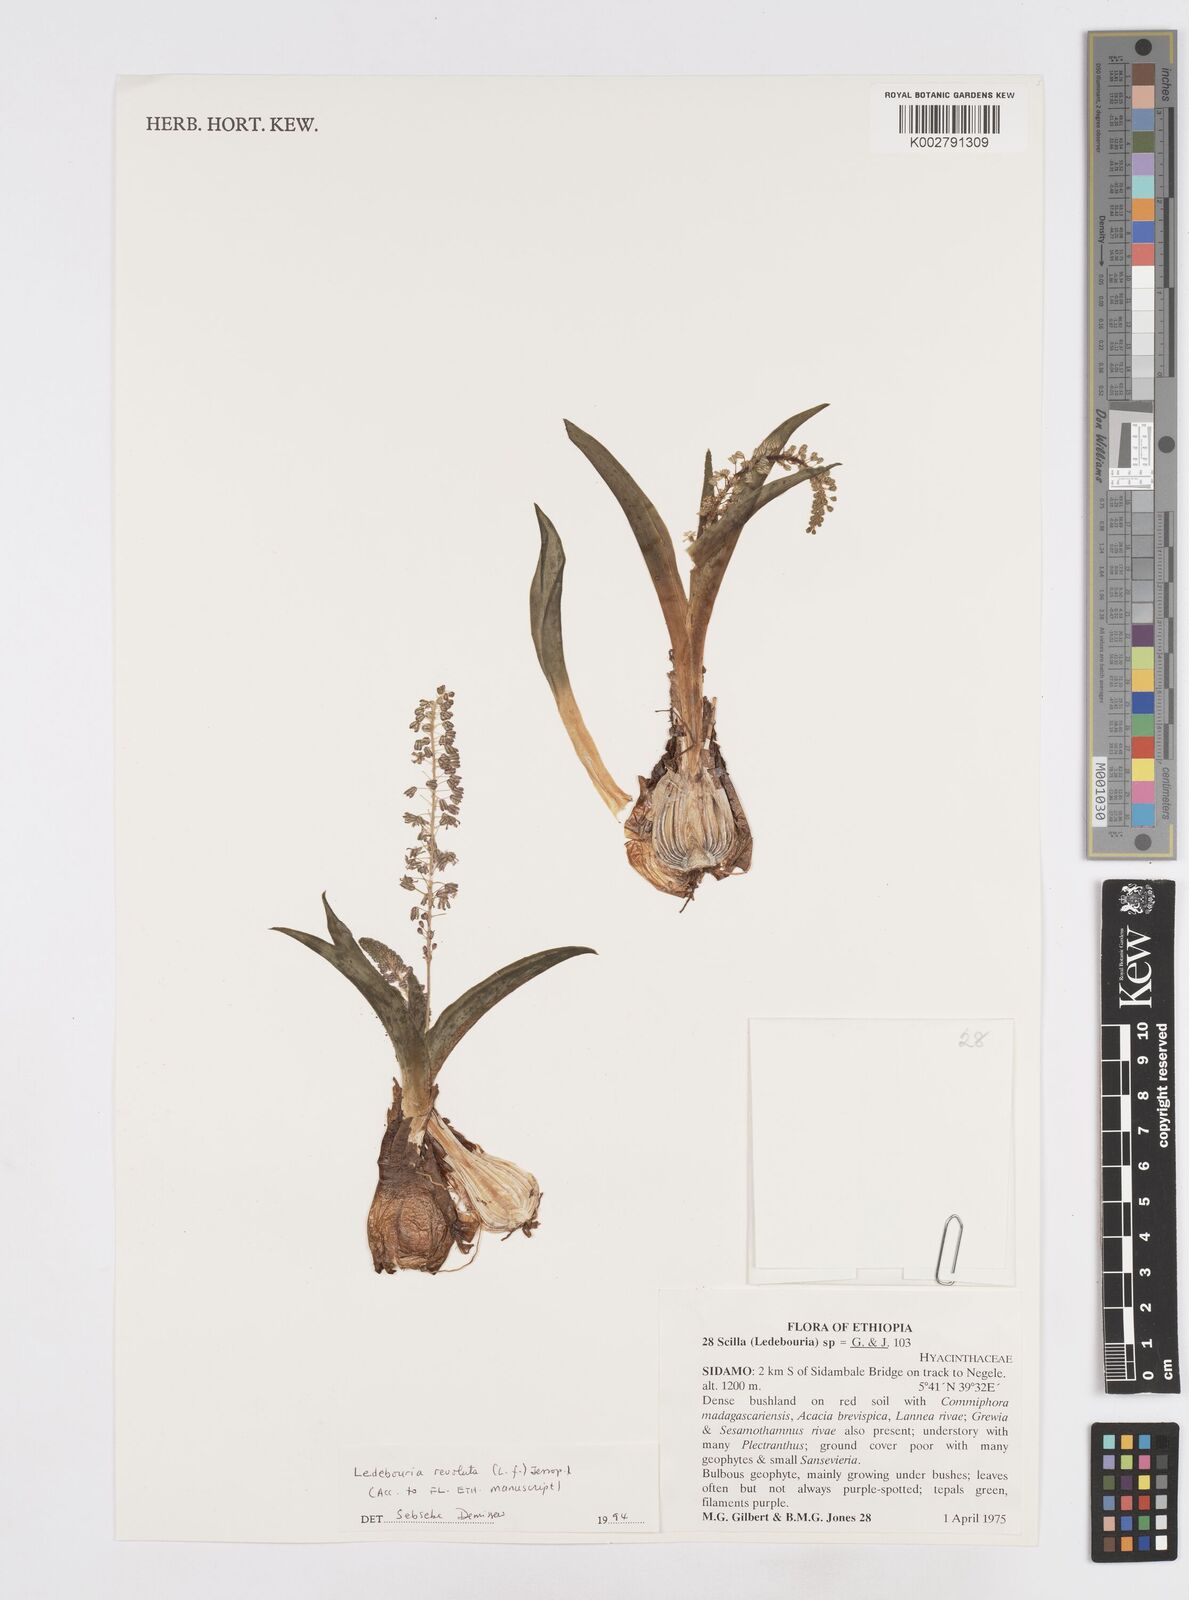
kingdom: Plantae
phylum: Tracheophyta
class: Liliopsida
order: Asparagales
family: Asparagaceae
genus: Scilla
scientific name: Scilla
